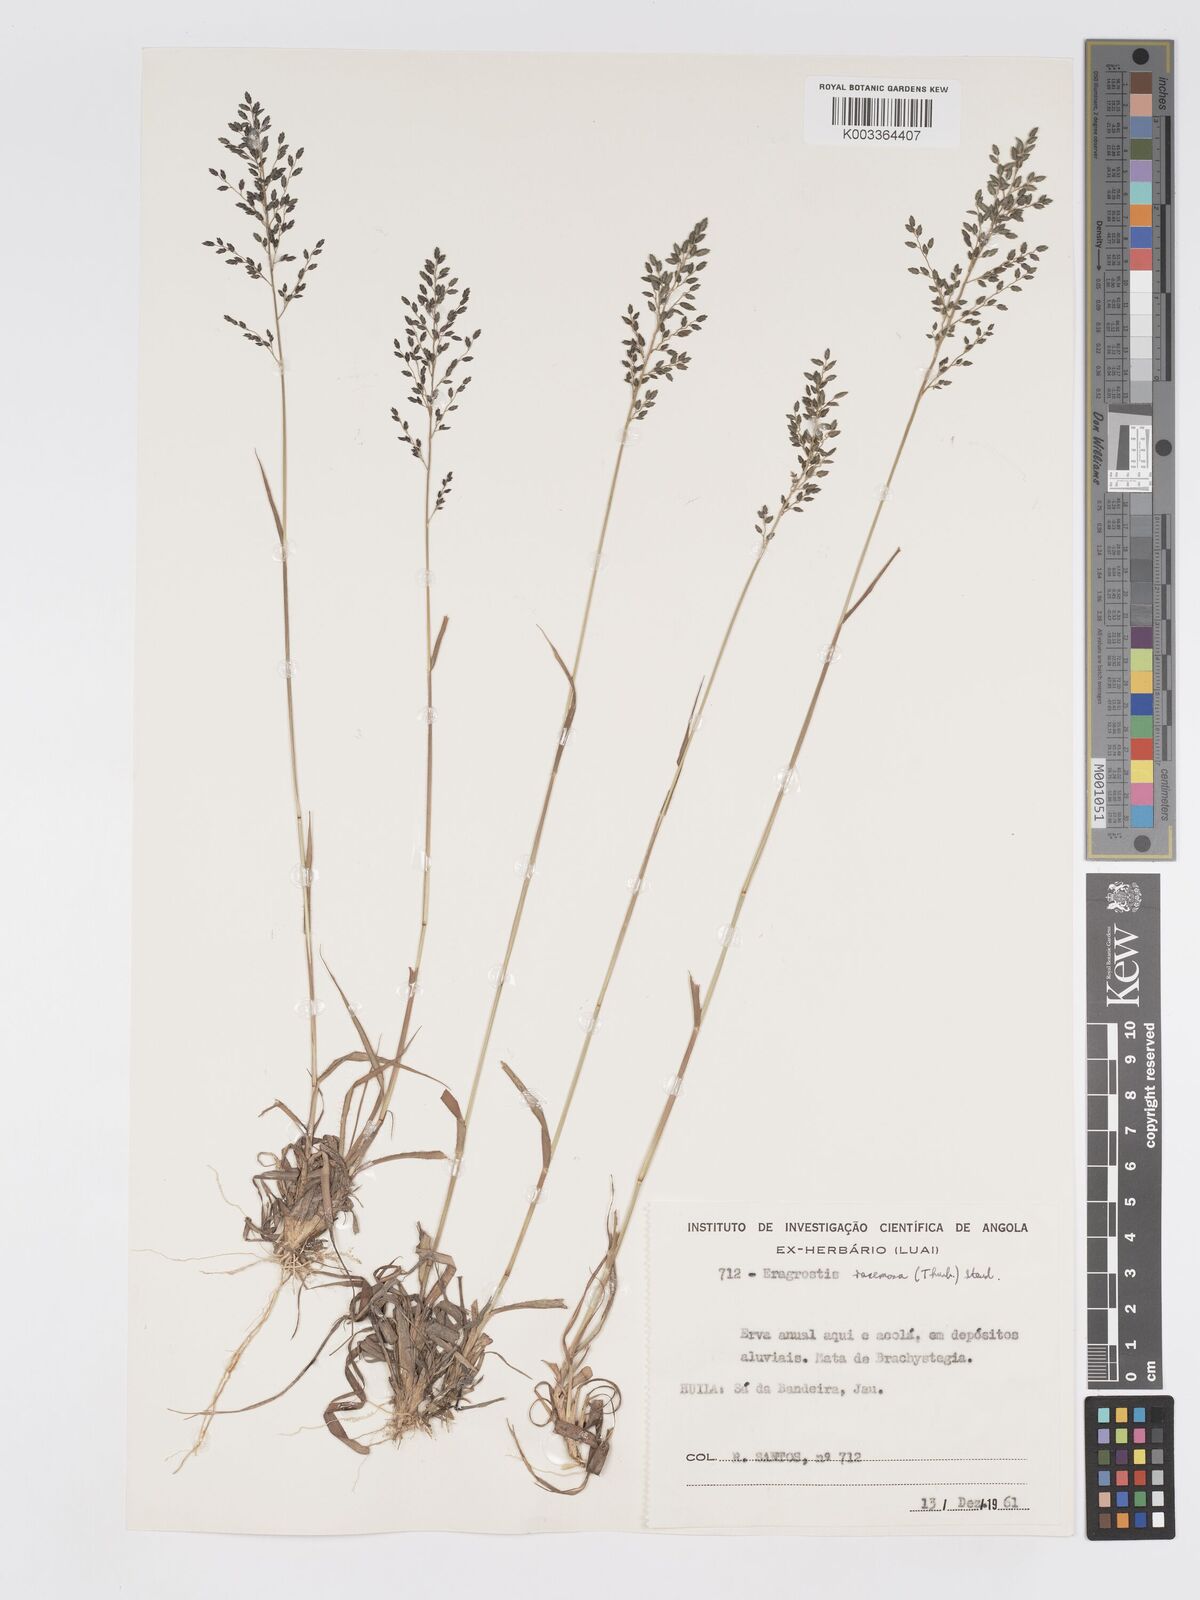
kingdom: Plantae
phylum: Tracheophyta
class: Liliopsida
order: Poales
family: Poaceae
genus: Eragrostis
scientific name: Eragrostis racemosa
